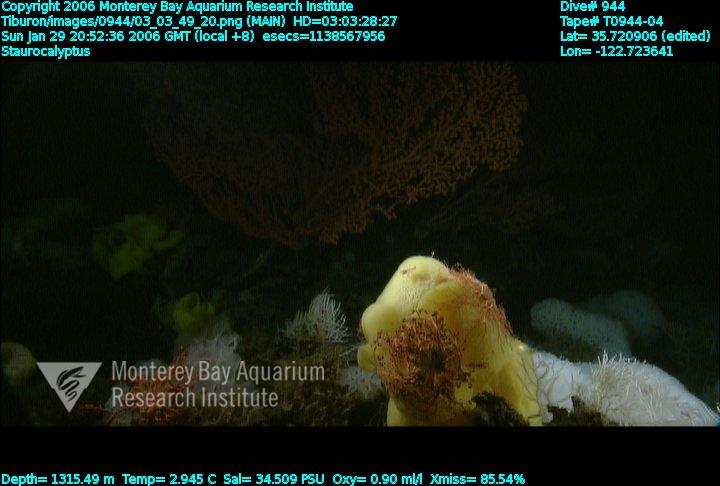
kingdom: Animalia
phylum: Porifera
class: Hexactinellida
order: Lyssacinosida
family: Rossellidae
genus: Staurocalyptus
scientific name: Staurocalyptus
